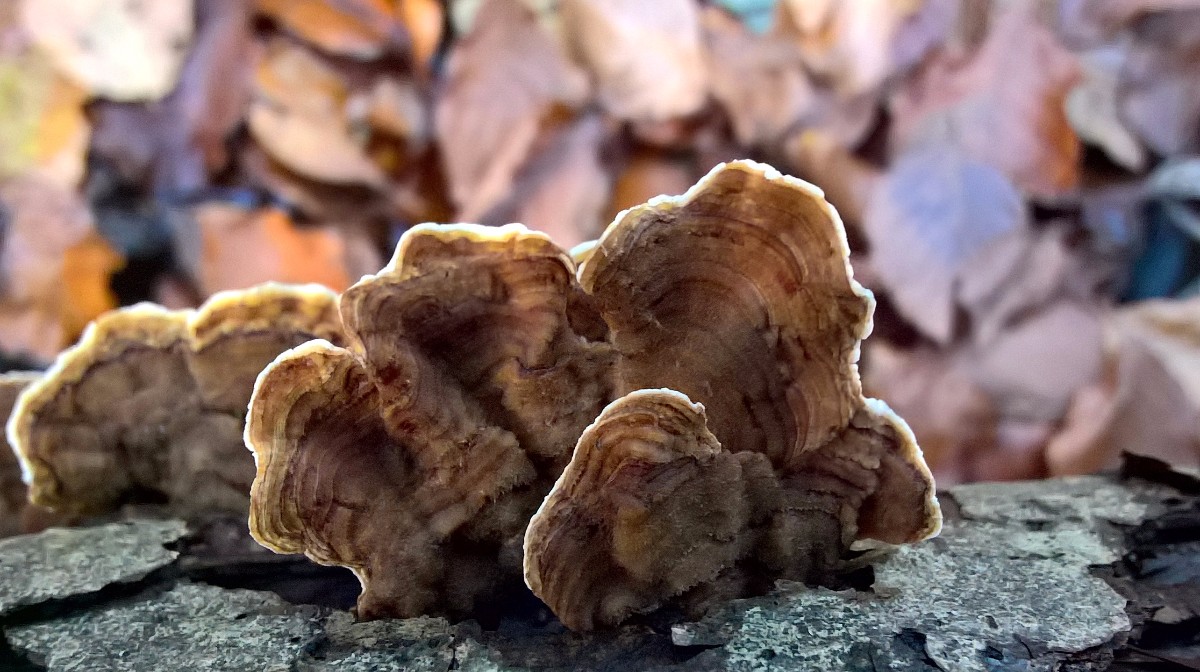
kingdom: Fungi
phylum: Basidiomycota
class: Agaricomycetes
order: Russulales
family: Stereaceae
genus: Stereum
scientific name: Stereum subtomentosum
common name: smuk lædersvamp
